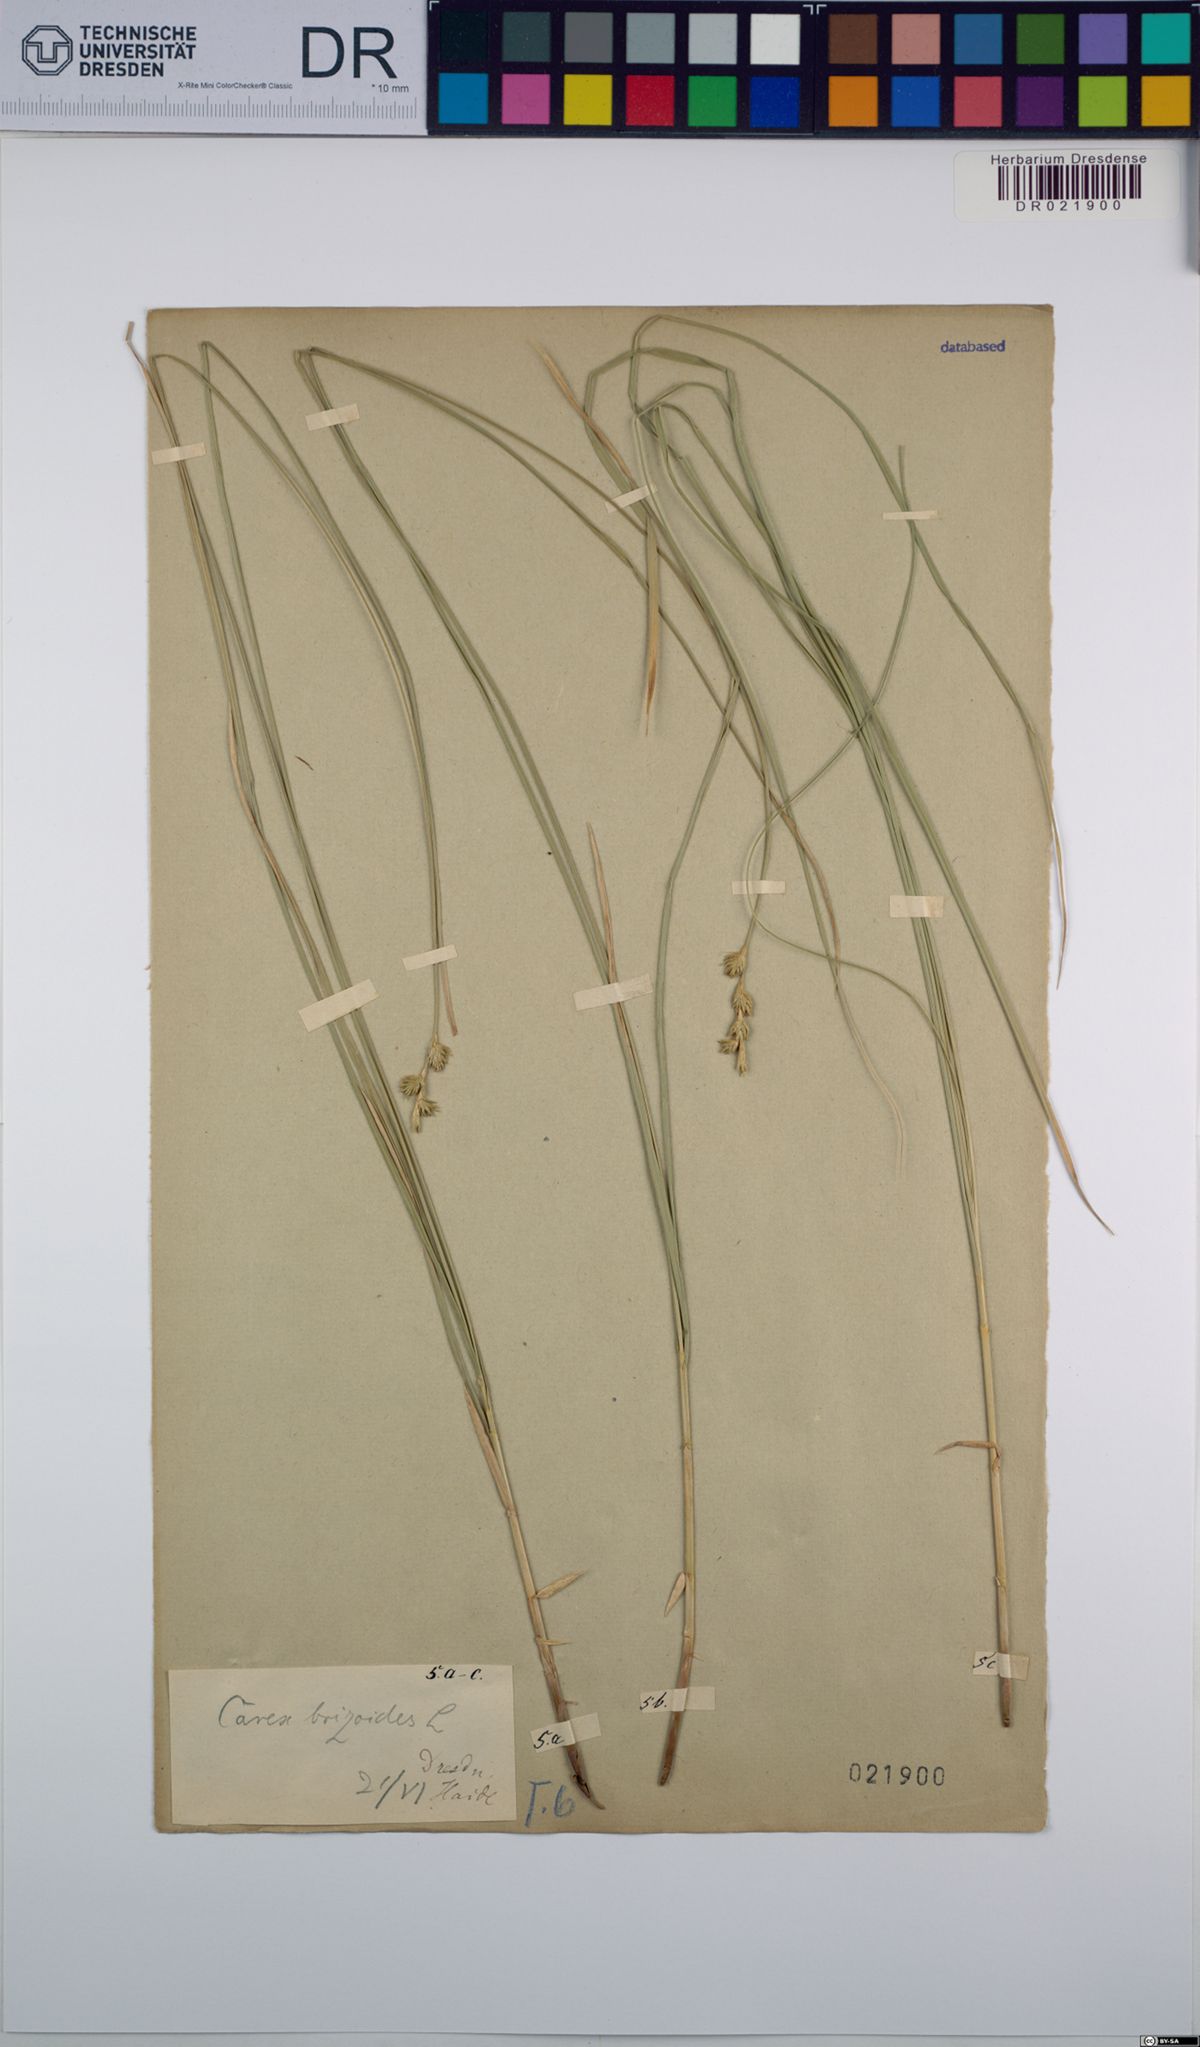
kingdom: Plantae
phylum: Tracheophyta
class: Liliopsida
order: Poales
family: Cyperaceae
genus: Carex
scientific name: Carex brizoides
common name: Quaking-grass sedge
